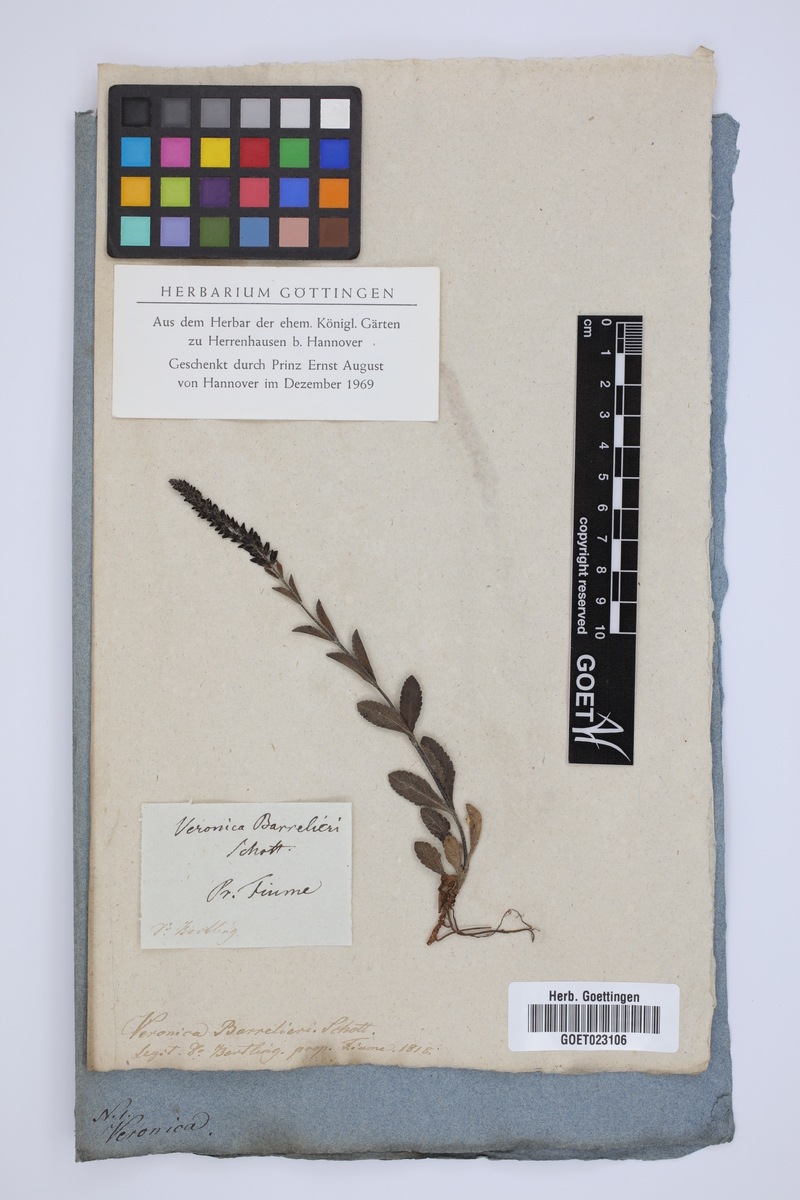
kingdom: Plantae
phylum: Tracheophyta
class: Magnoliopsida
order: Lamiales
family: Plantaginaceae
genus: Veronica
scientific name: Veronica barrelieri
